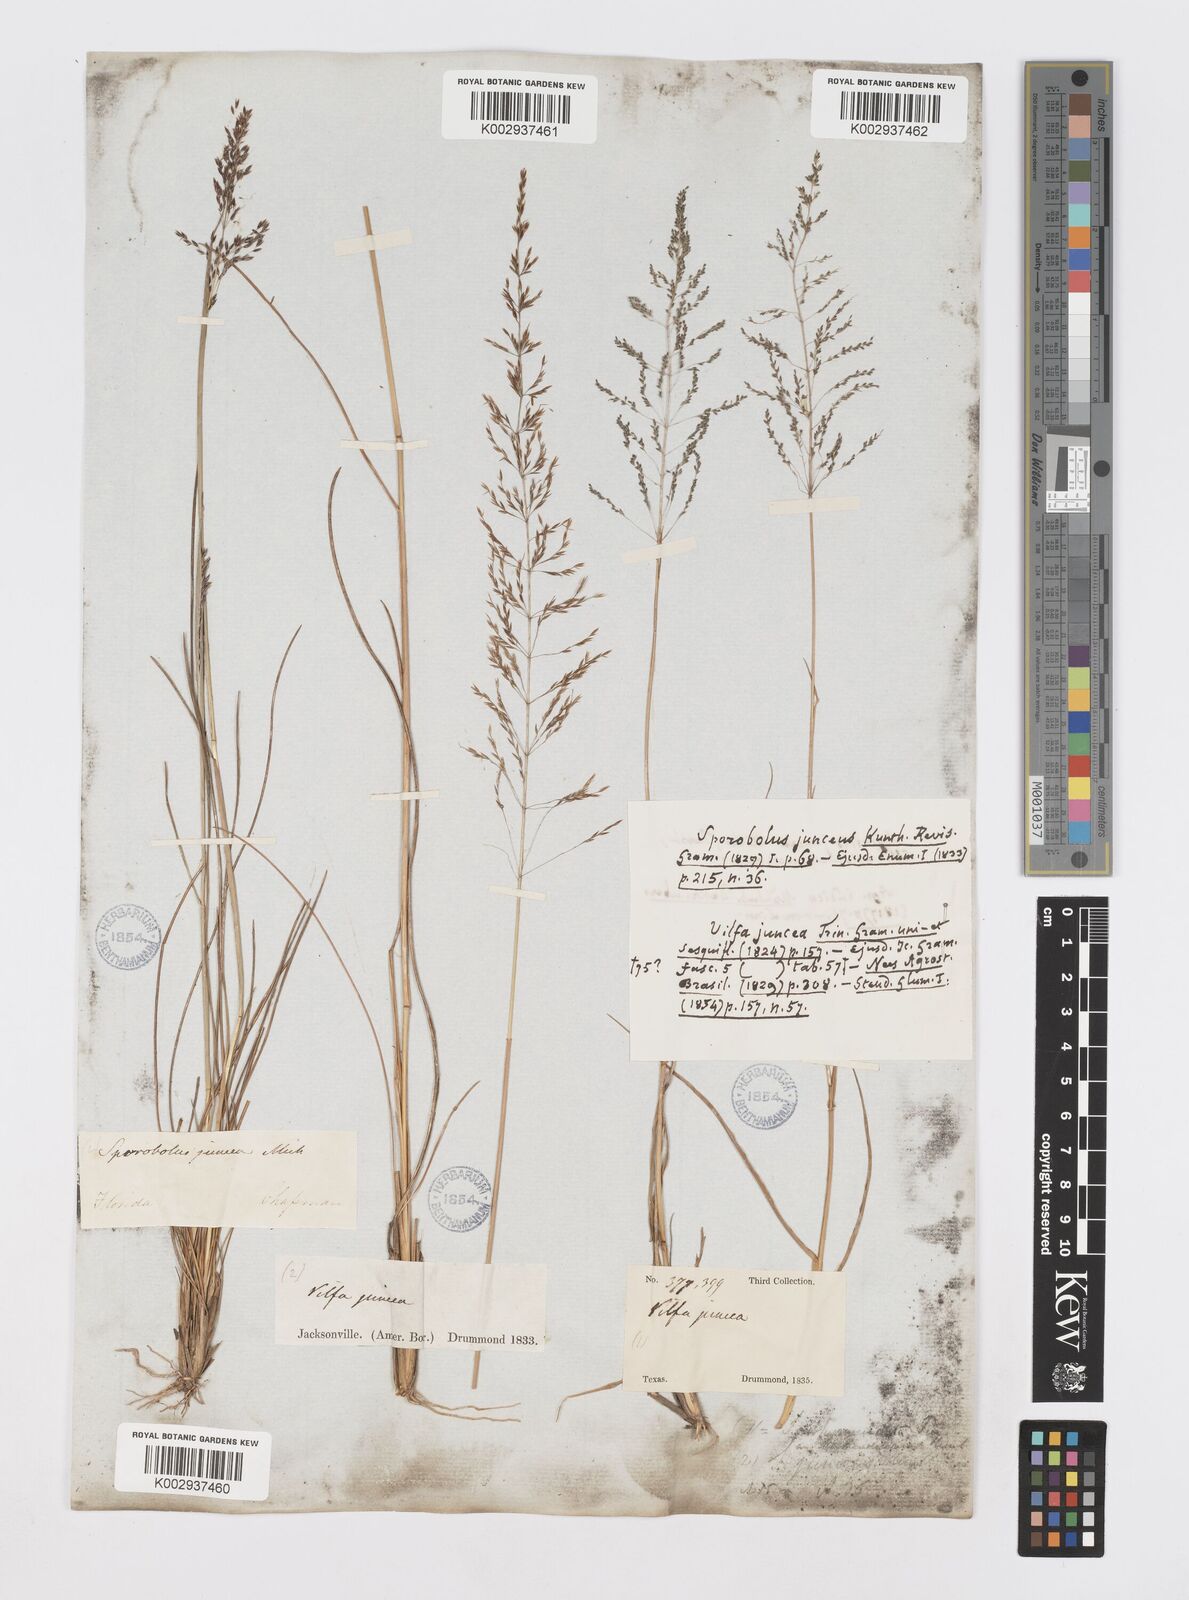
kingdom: Plantae
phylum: Tracheophyta
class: Liliopsida
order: Poales
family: Poaceae
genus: Sporobolus
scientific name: Sporobolus junceus
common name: Lizard grass
